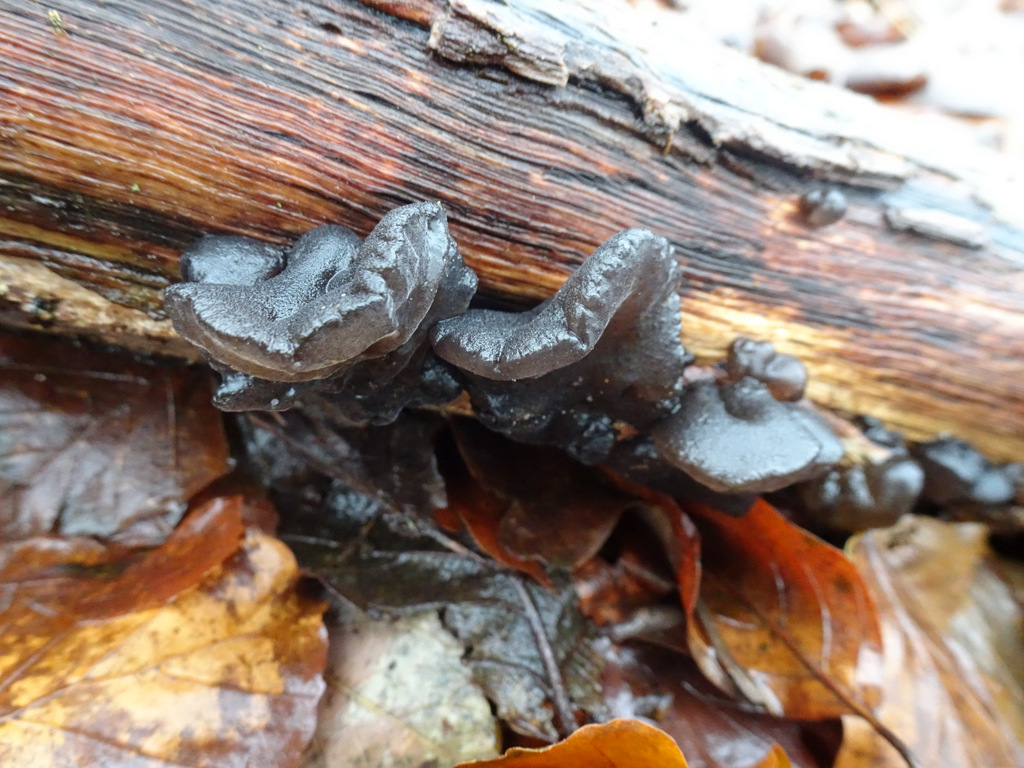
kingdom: Fungi
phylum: Basidiomycota
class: Agaricomycetes
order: Auriculariales
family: Auriculariaceae
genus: Exidia
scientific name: Exidia glandulosa
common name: ege-bævretop
